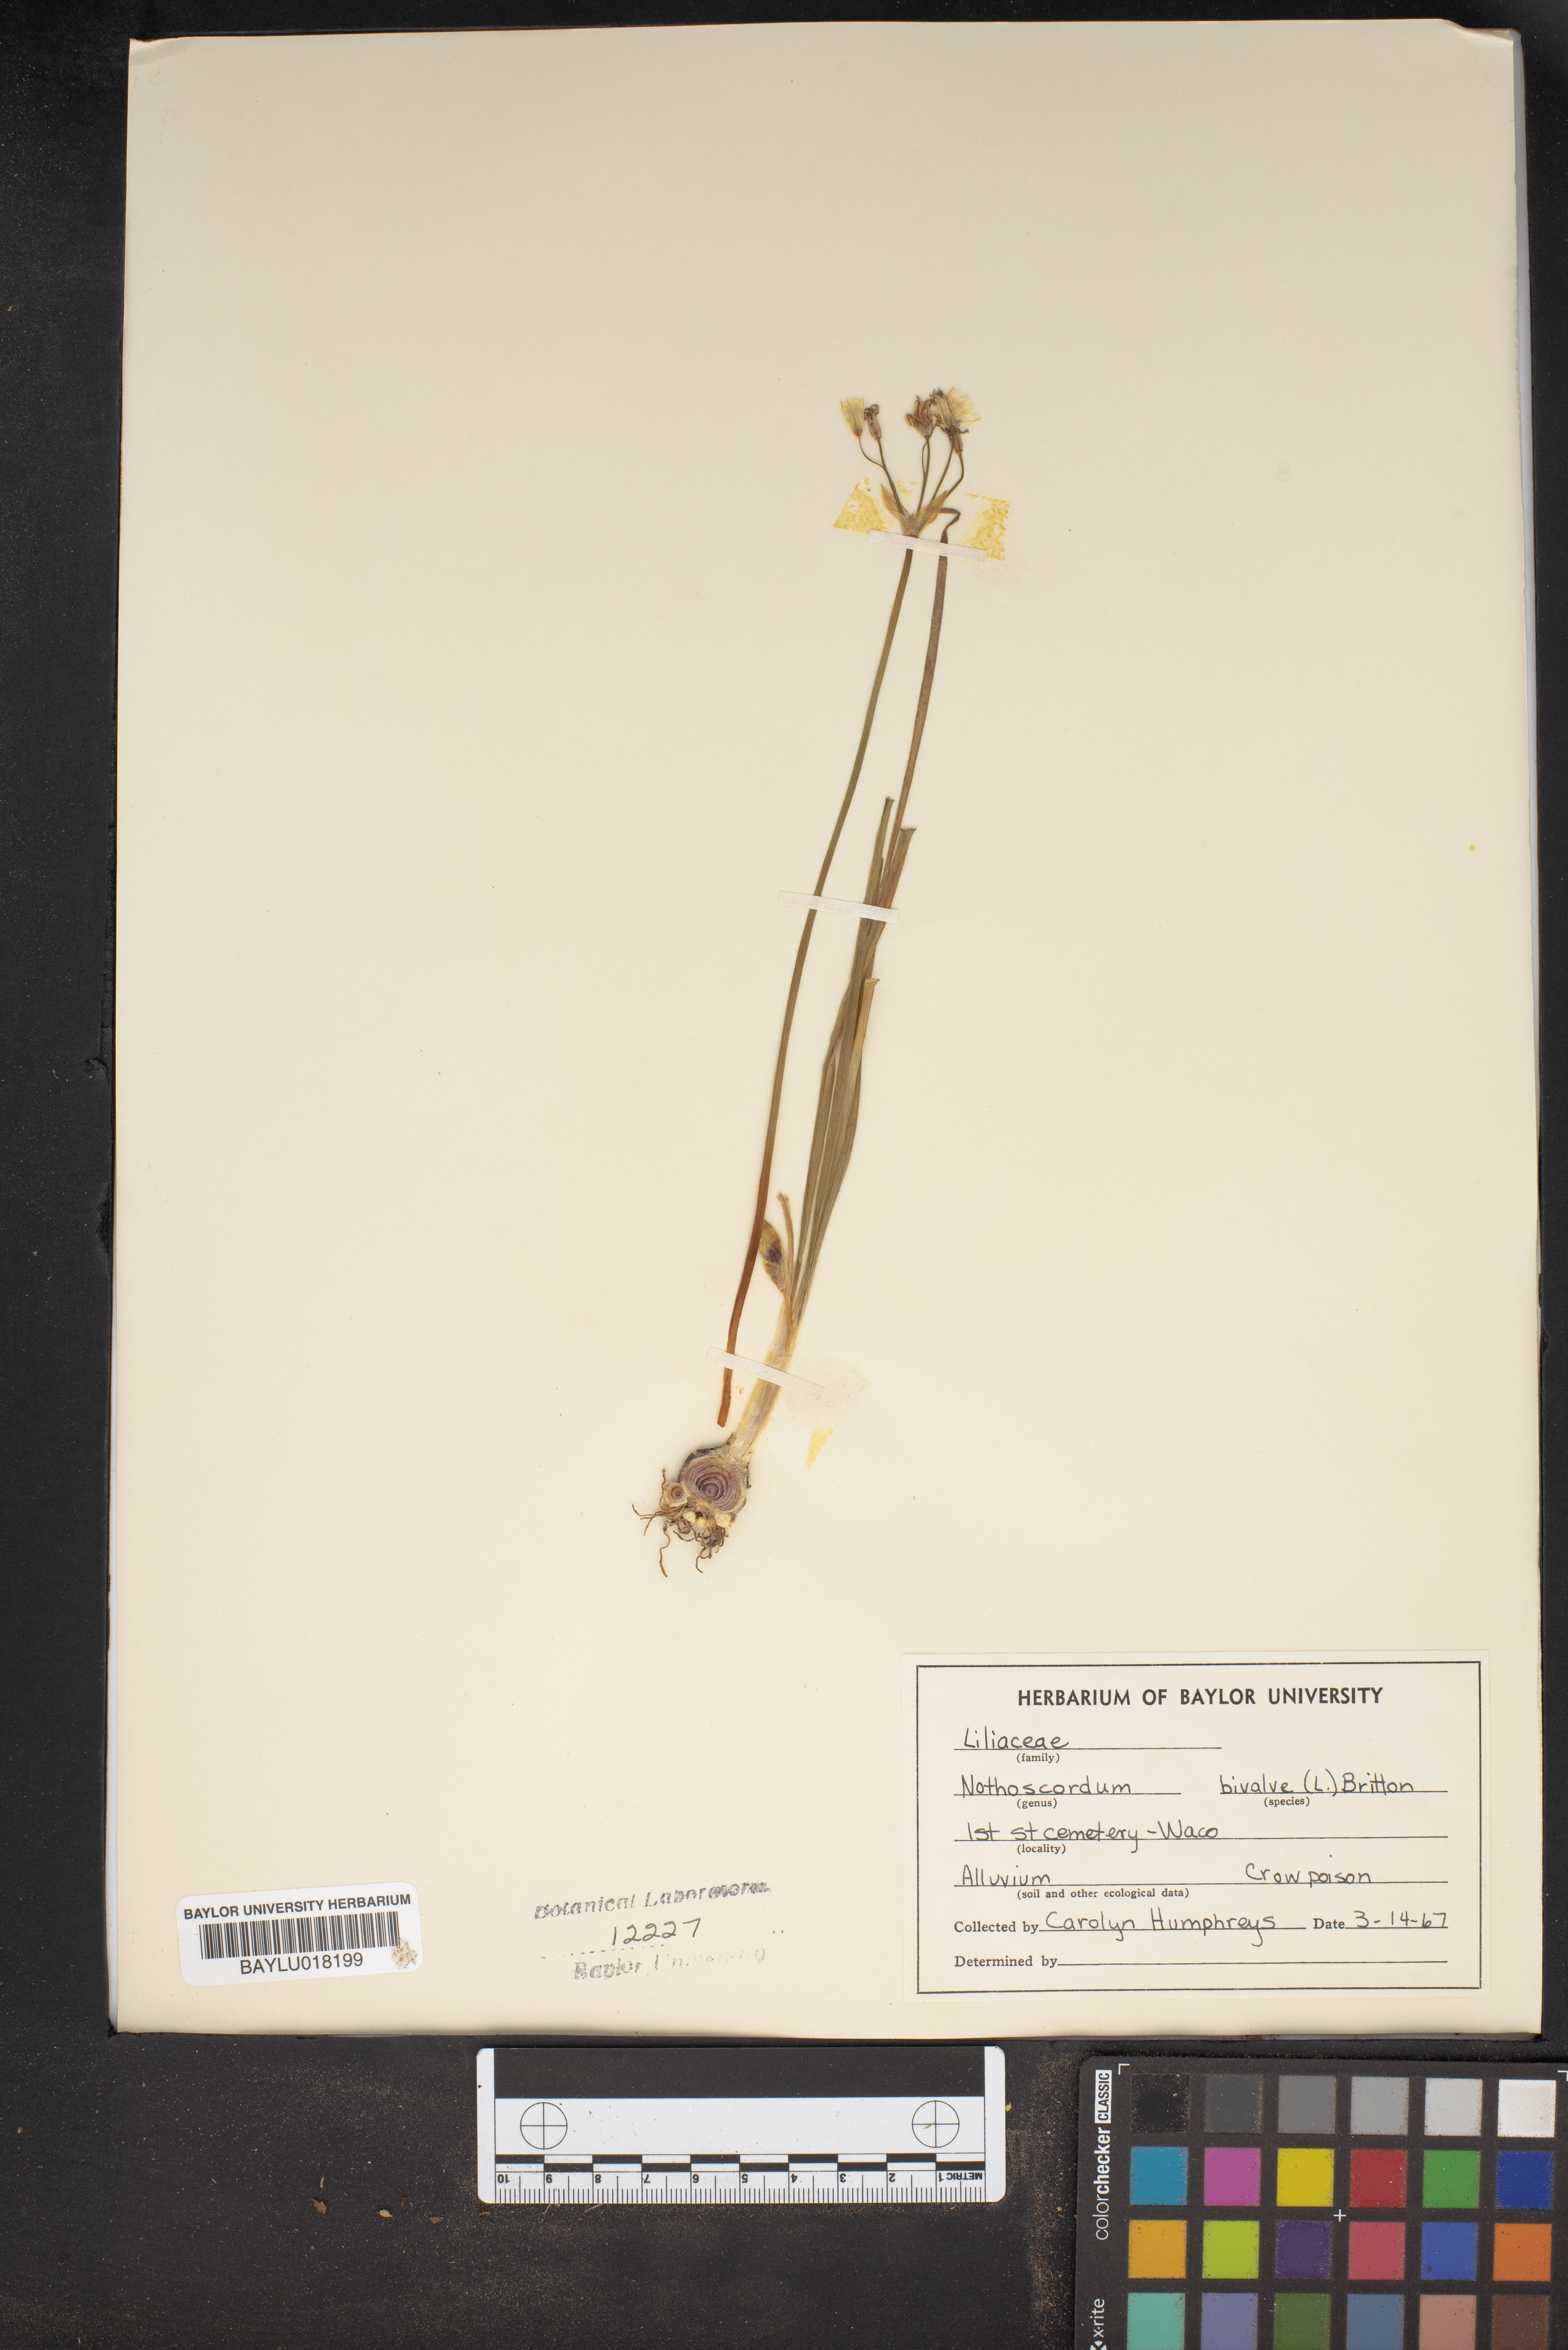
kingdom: Plantae
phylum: Tracheophyta
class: Liliopsida
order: Asparagales
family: Amaryllidaceae
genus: Nothoscordum
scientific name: Nothoscordum bivalve
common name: Crow-poison
